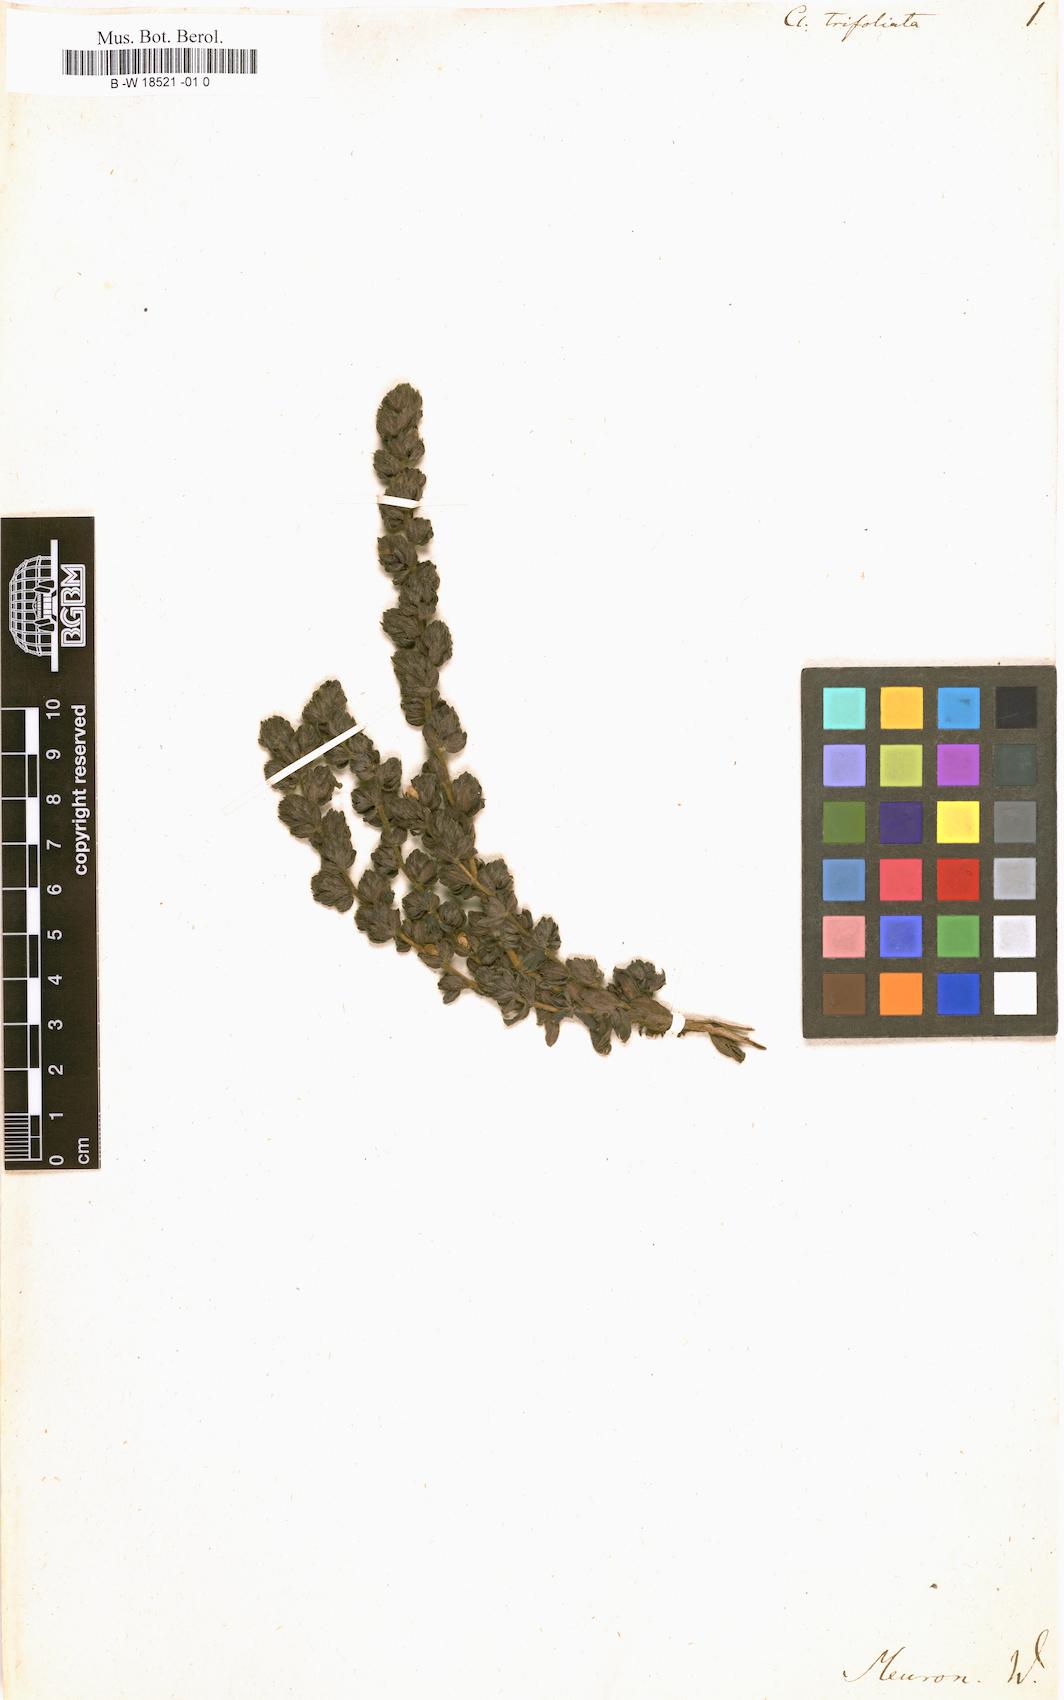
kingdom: Plantae
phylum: Tracheophyta
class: Magnoliopsida
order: Rosales
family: Rosaceae
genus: Cliffortia
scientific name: Cliffortia polygonifolia
